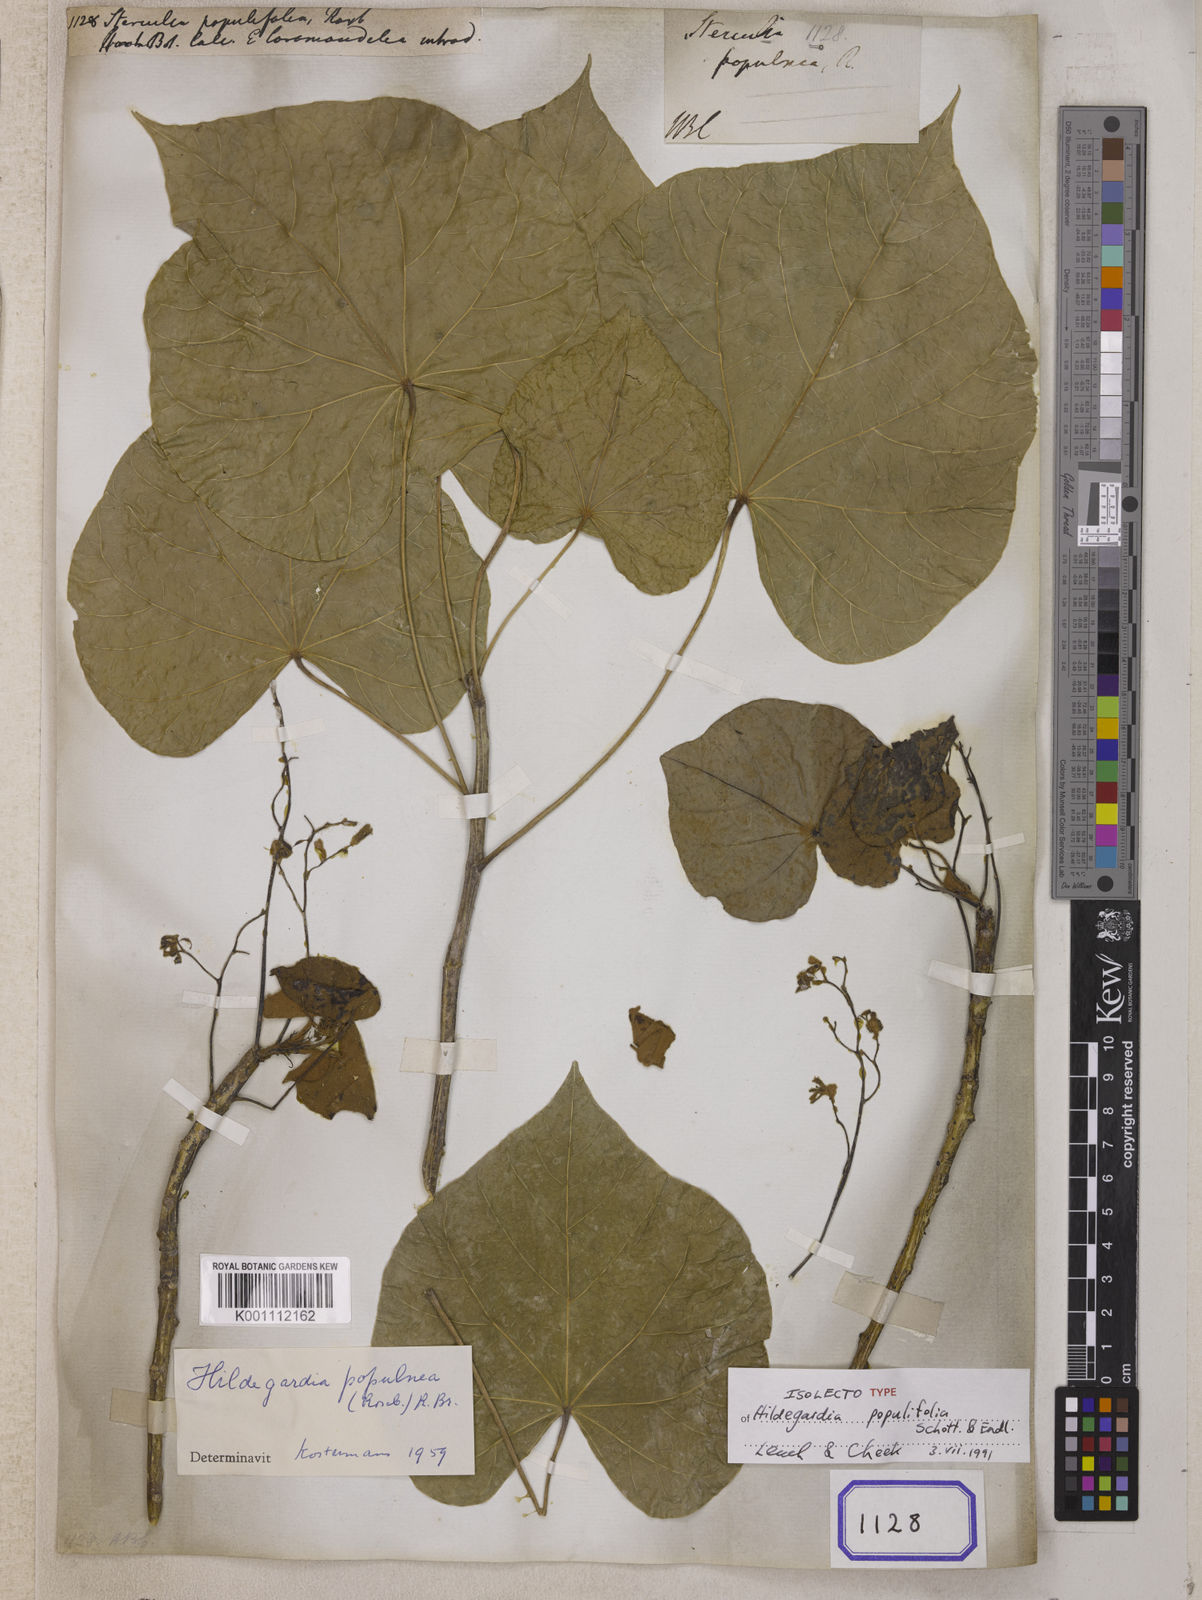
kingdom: Plantae
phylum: Tracheophyta
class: Magnoliopsida
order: Malvales
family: Malvaceae
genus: Sterculia
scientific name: Sterculia
